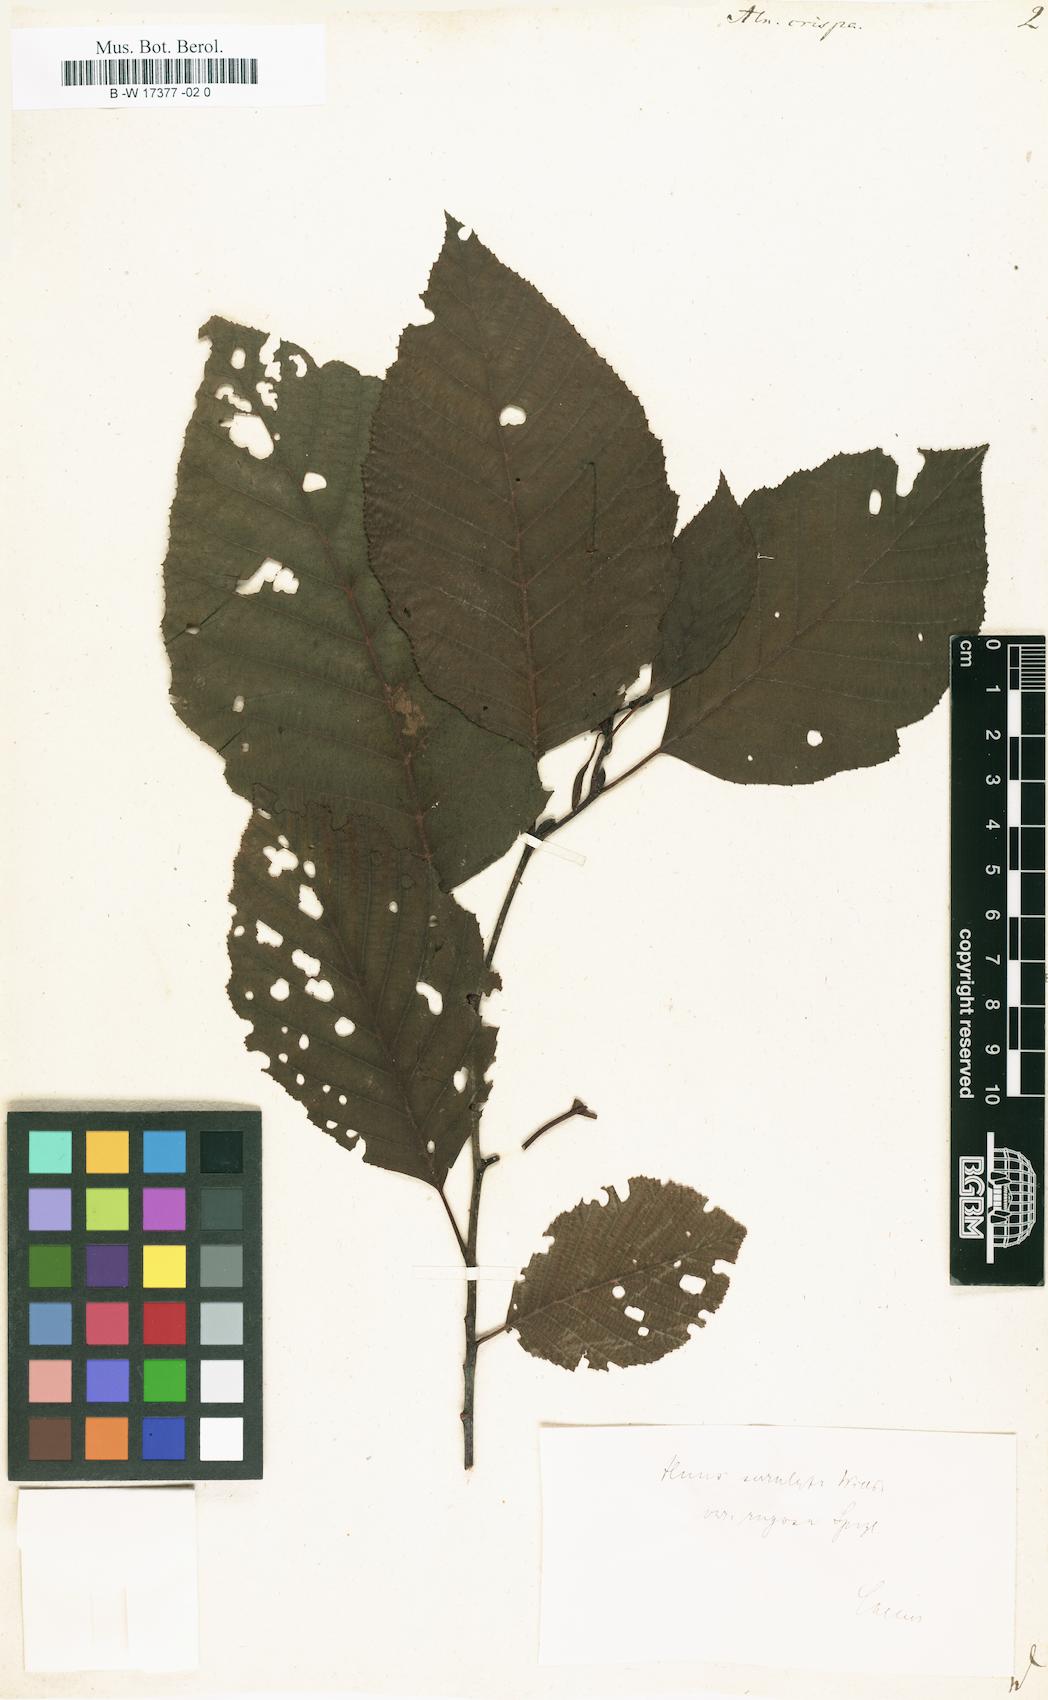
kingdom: Plantae
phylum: Tracheophyta
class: Magnoliopsida
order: Fagales
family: Betulaceae
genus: Alnus
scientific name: Alnus alnobetula
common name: Green alder
